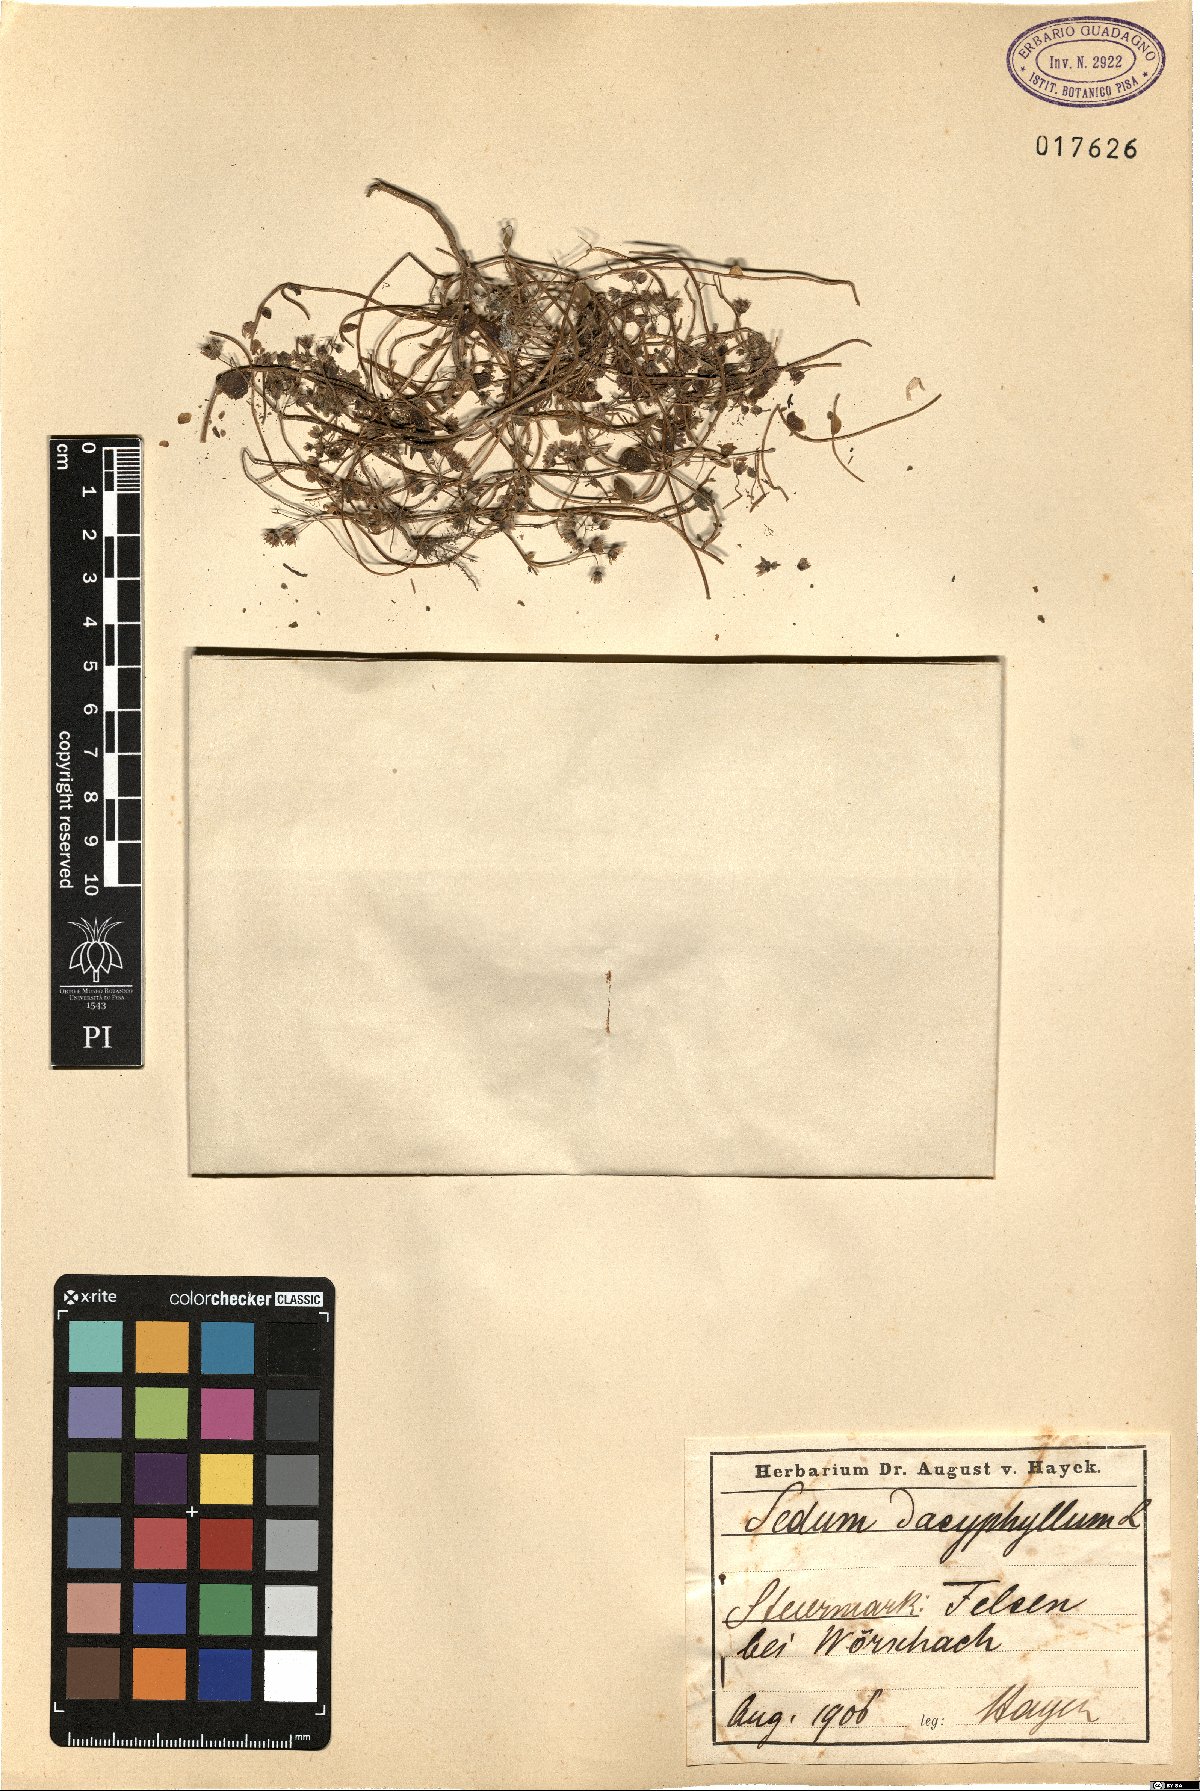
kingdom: Plantae
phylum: Tracheophyta
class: Magnoliopsida
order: Saxifragales
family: Crassulaceae
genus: Sedum
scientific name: Sedum dasyphyllum
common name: Thick-leaf stonecrop
